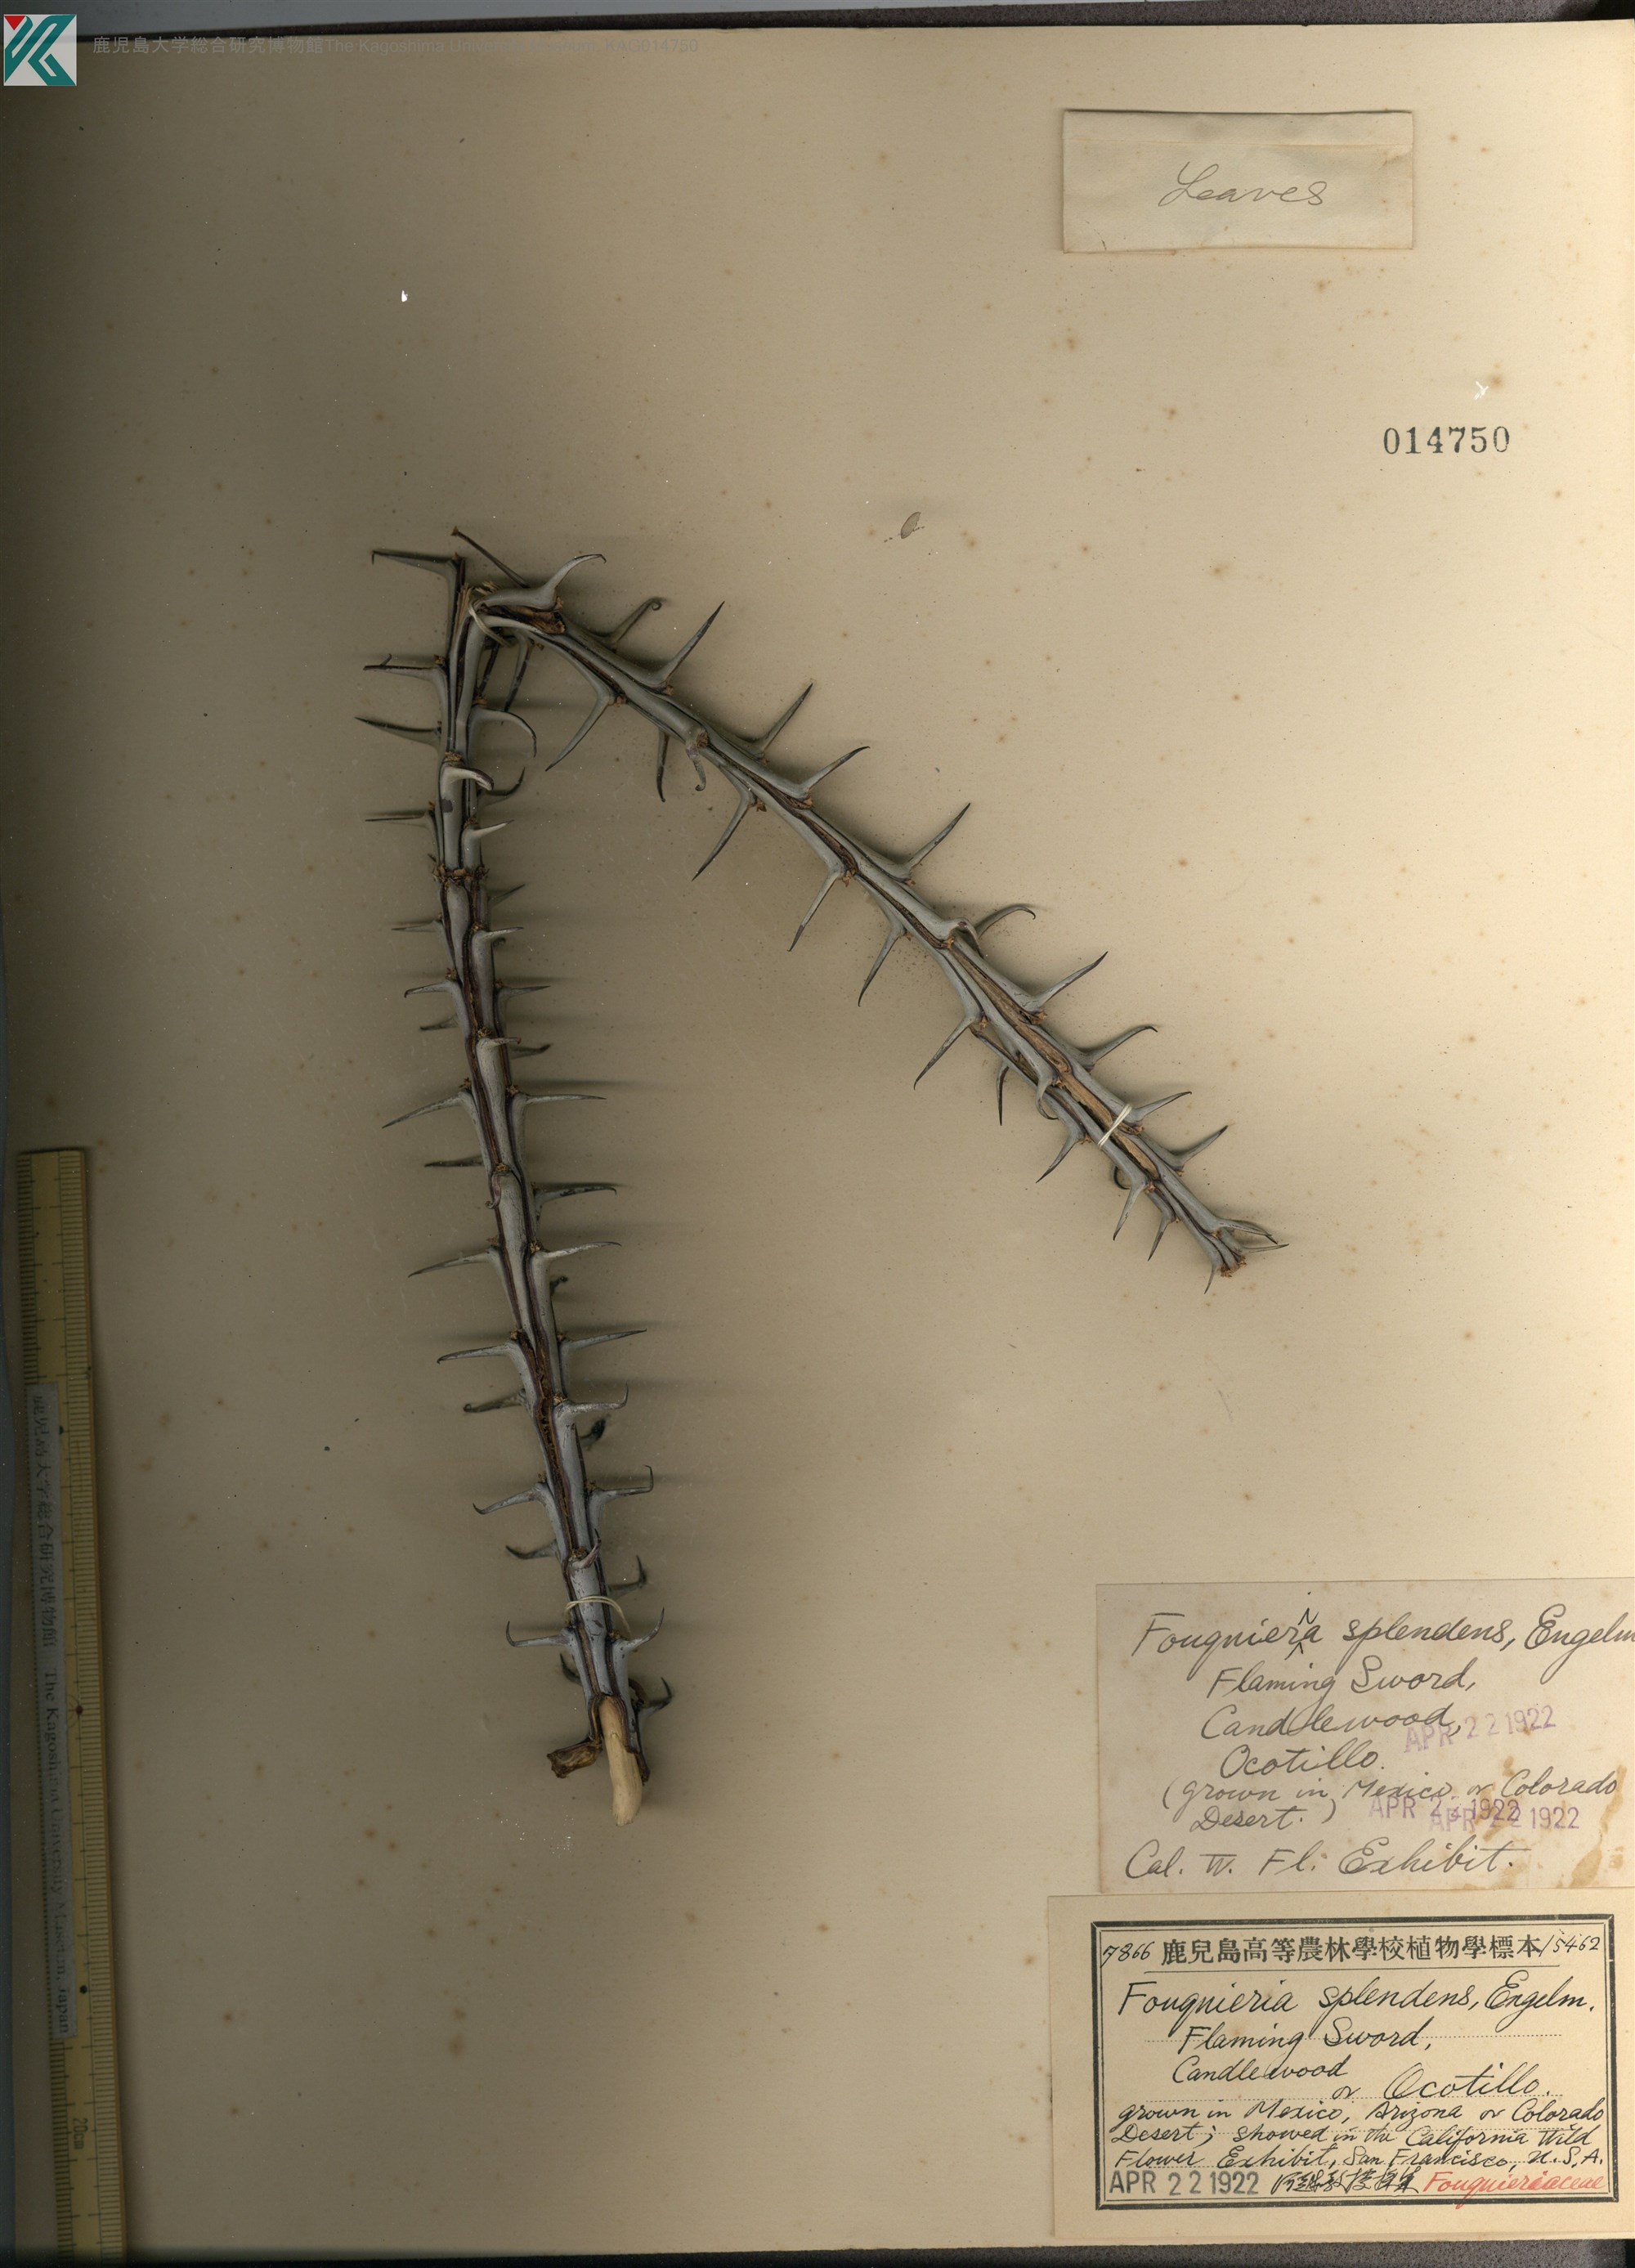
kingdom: Plantae
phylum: Tracheophyta
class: Magnoliopsida
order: Ericales
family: Fouquieriaceae
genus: Fouquieria
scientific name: Fouquieria splendens
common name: Vine-cactus
